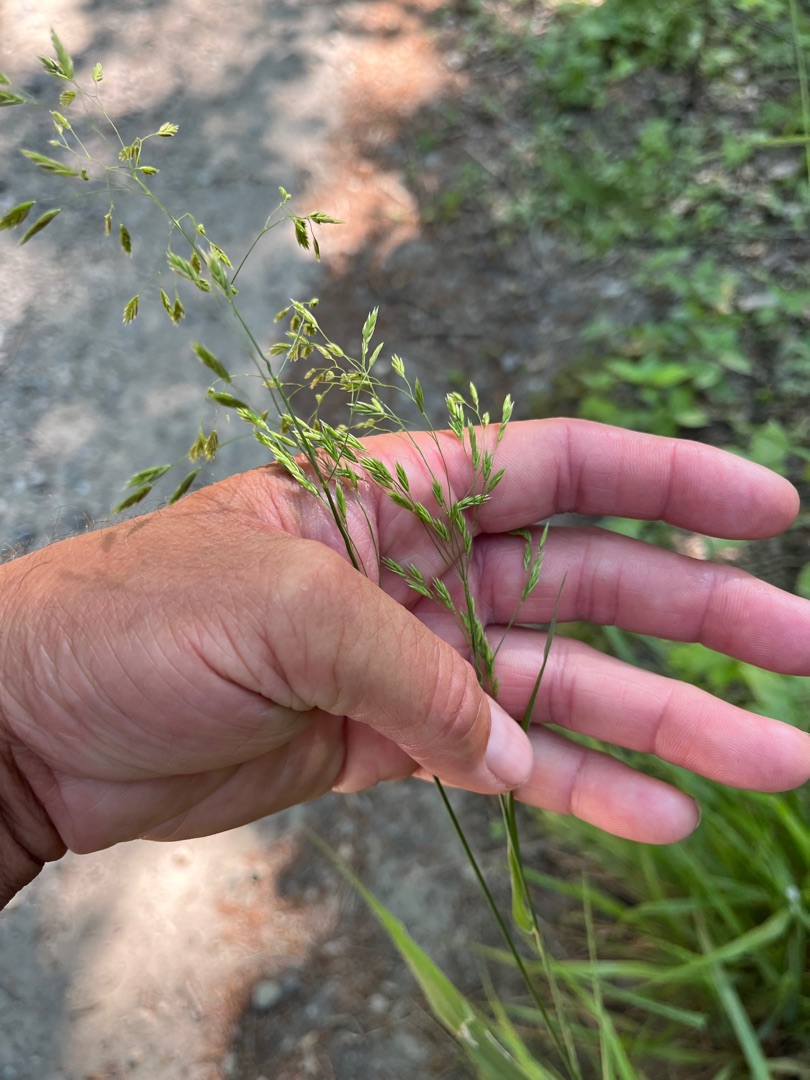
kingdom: Plantae
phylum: Tracheophyta
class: Liliopsida
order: Poales
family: Poaceae
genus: Festuca
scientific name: Festuca altissima
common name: Skov-svingel
